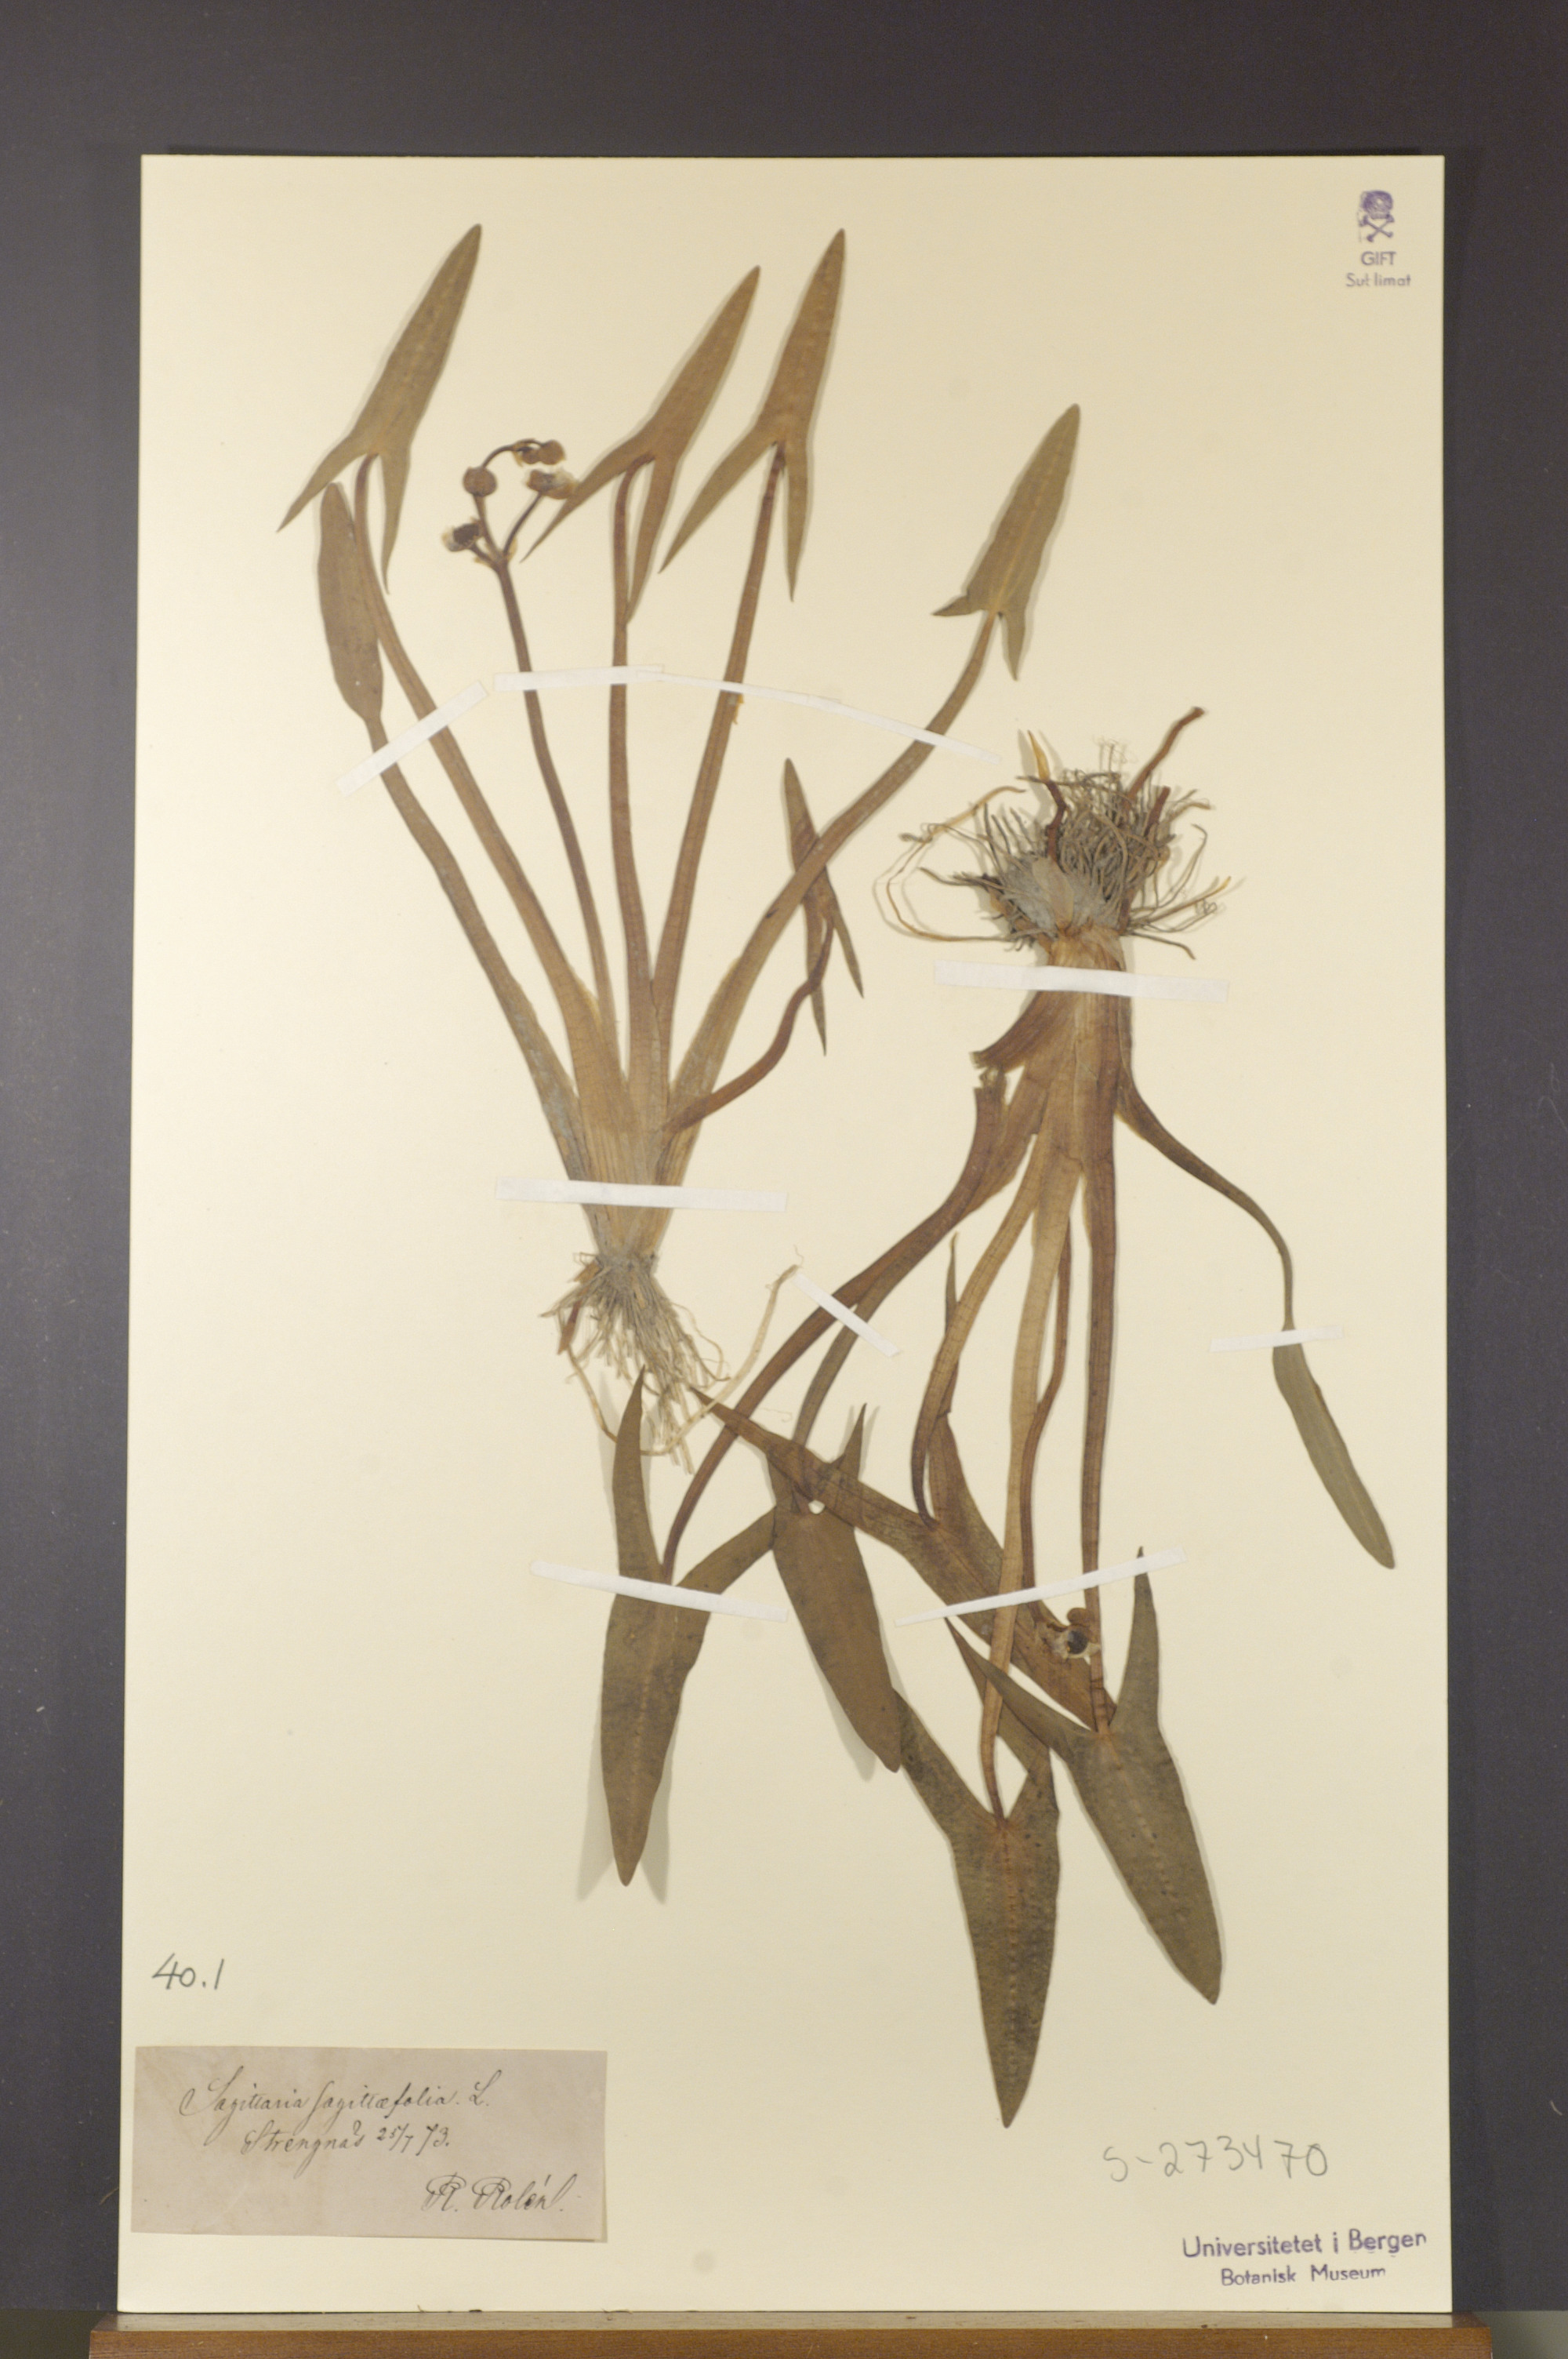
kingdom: Plantae
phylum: Tracheophyta
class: Liliopsida
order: Alismatales
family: Alismataceae
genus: Sagittaria
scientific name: Sagittaria sagittifolia
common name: Arrowhead
